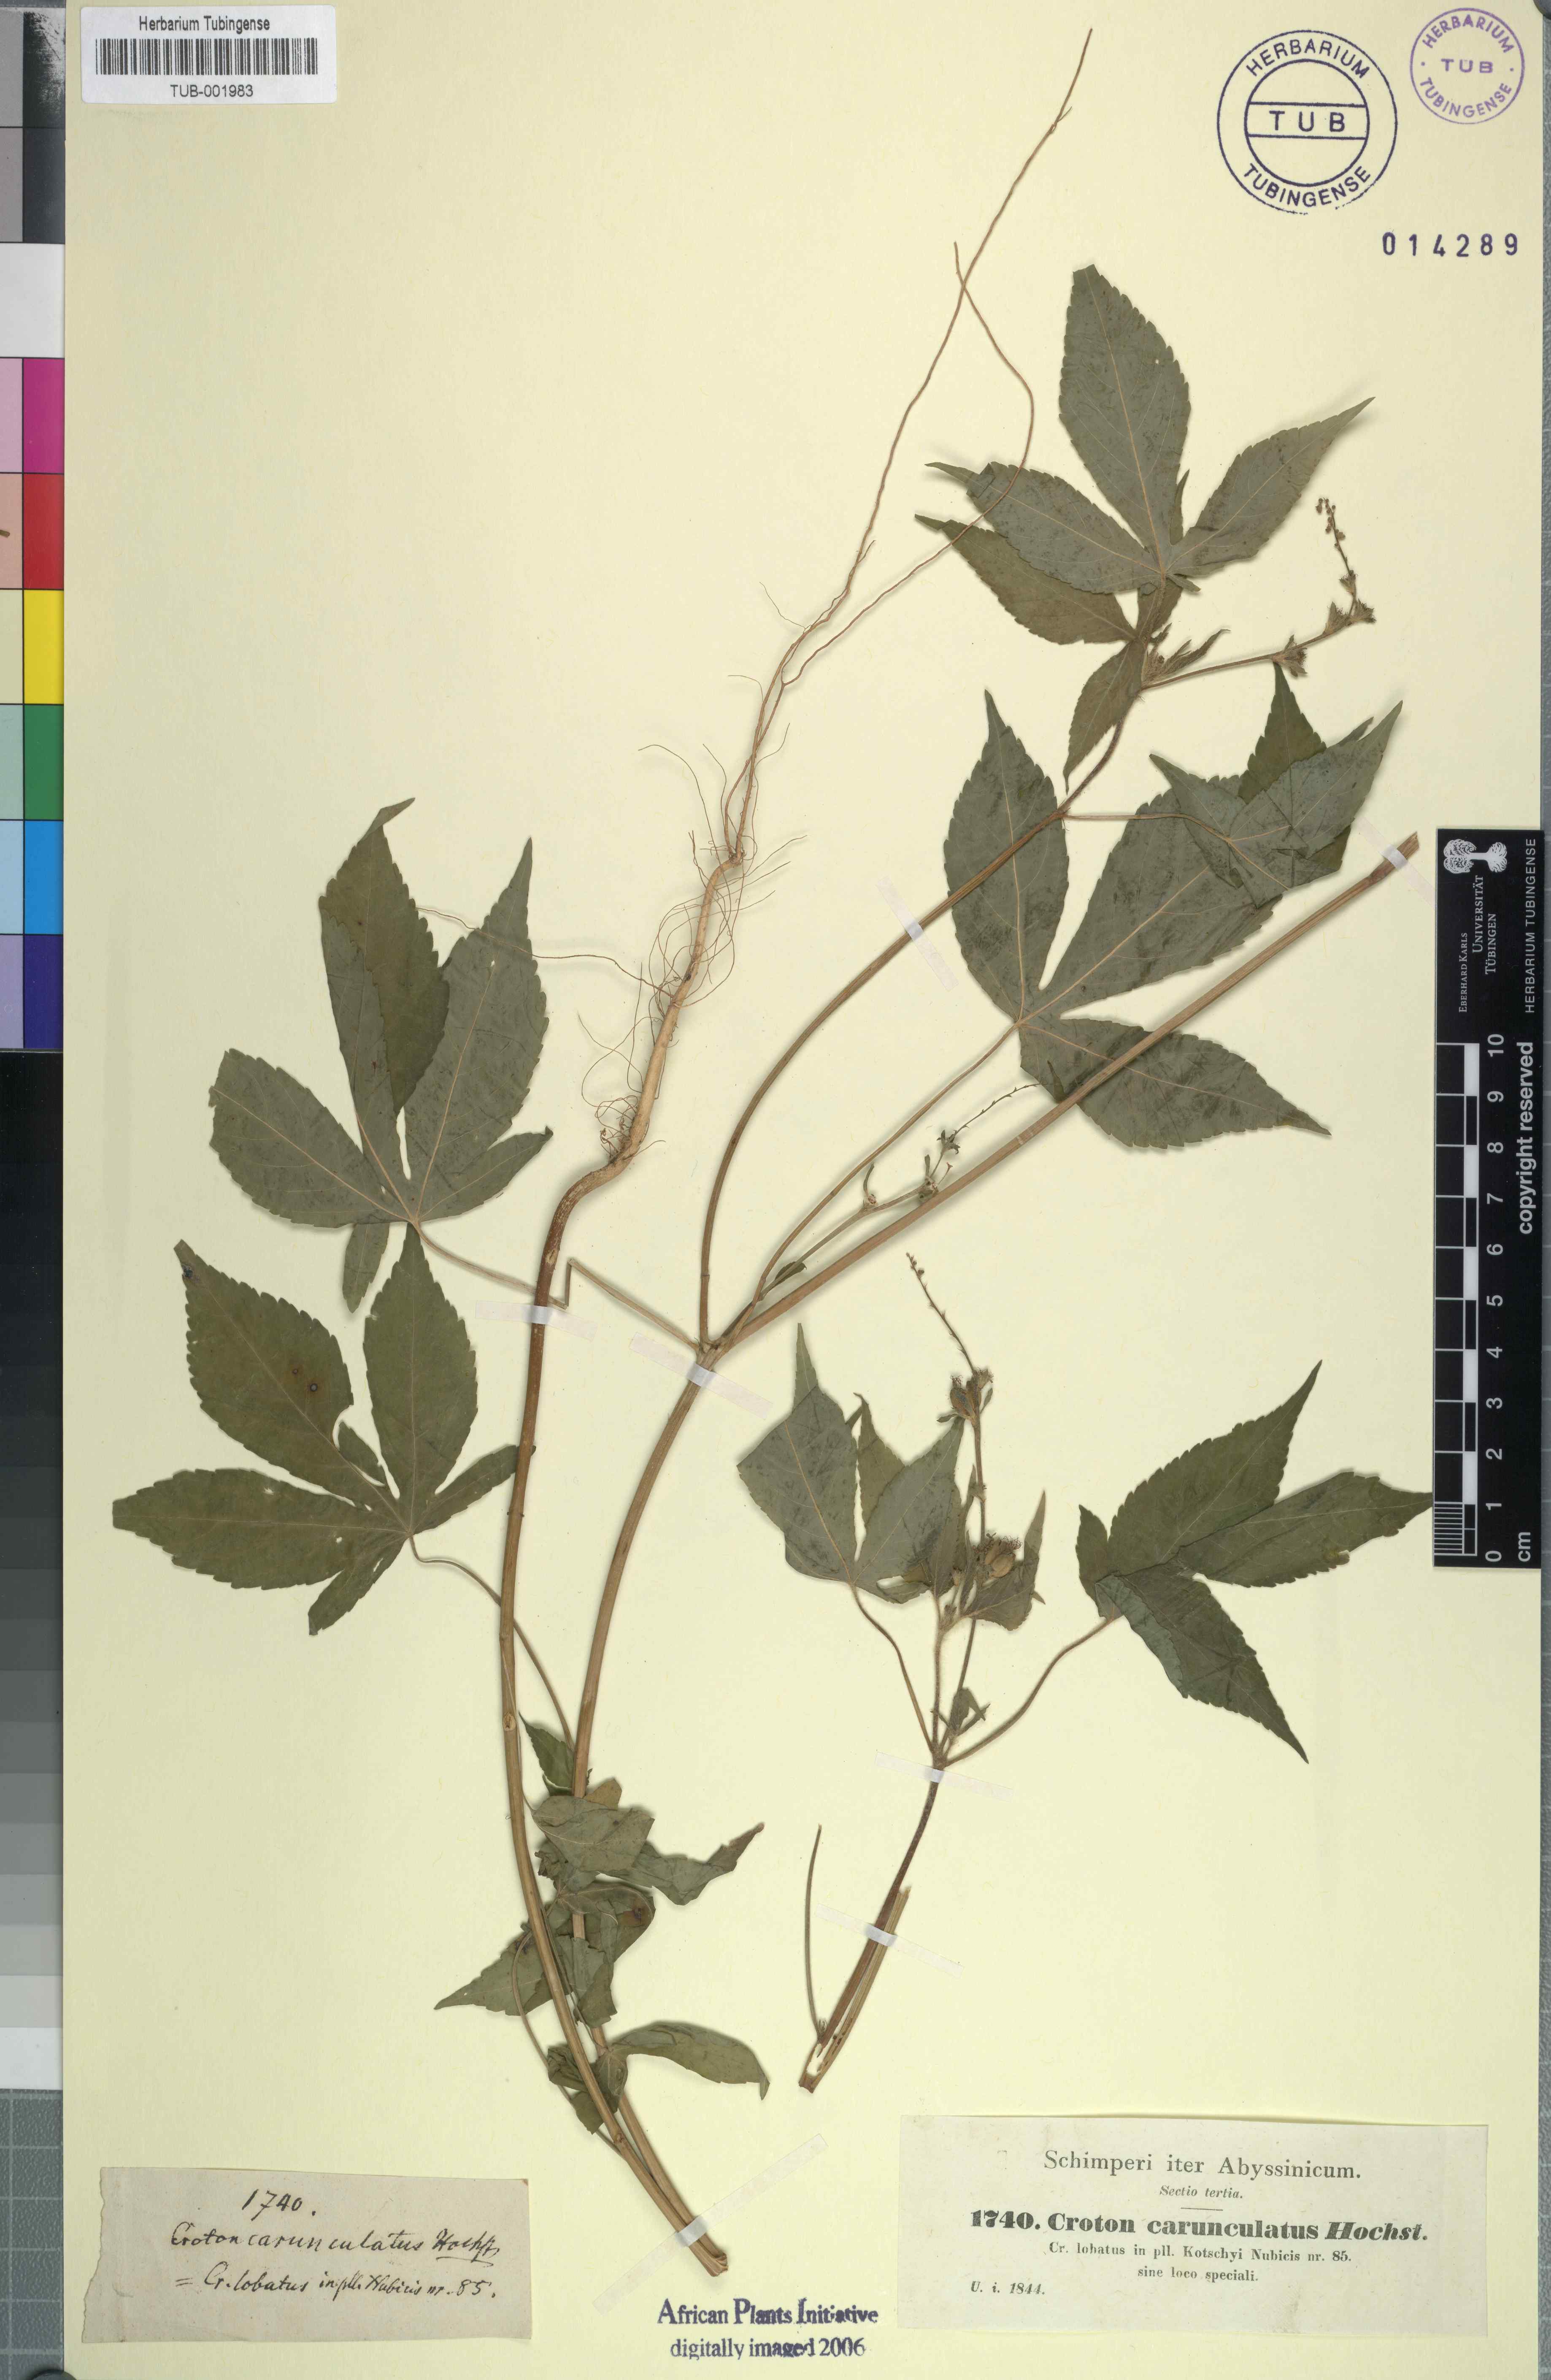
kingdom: Plantae
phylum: Tracheophyta
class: Magnoliopsida
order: Malpighiales
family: Euphorbiaceae
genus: Astraea
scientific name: Astraea lobata
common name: Lobed croton
